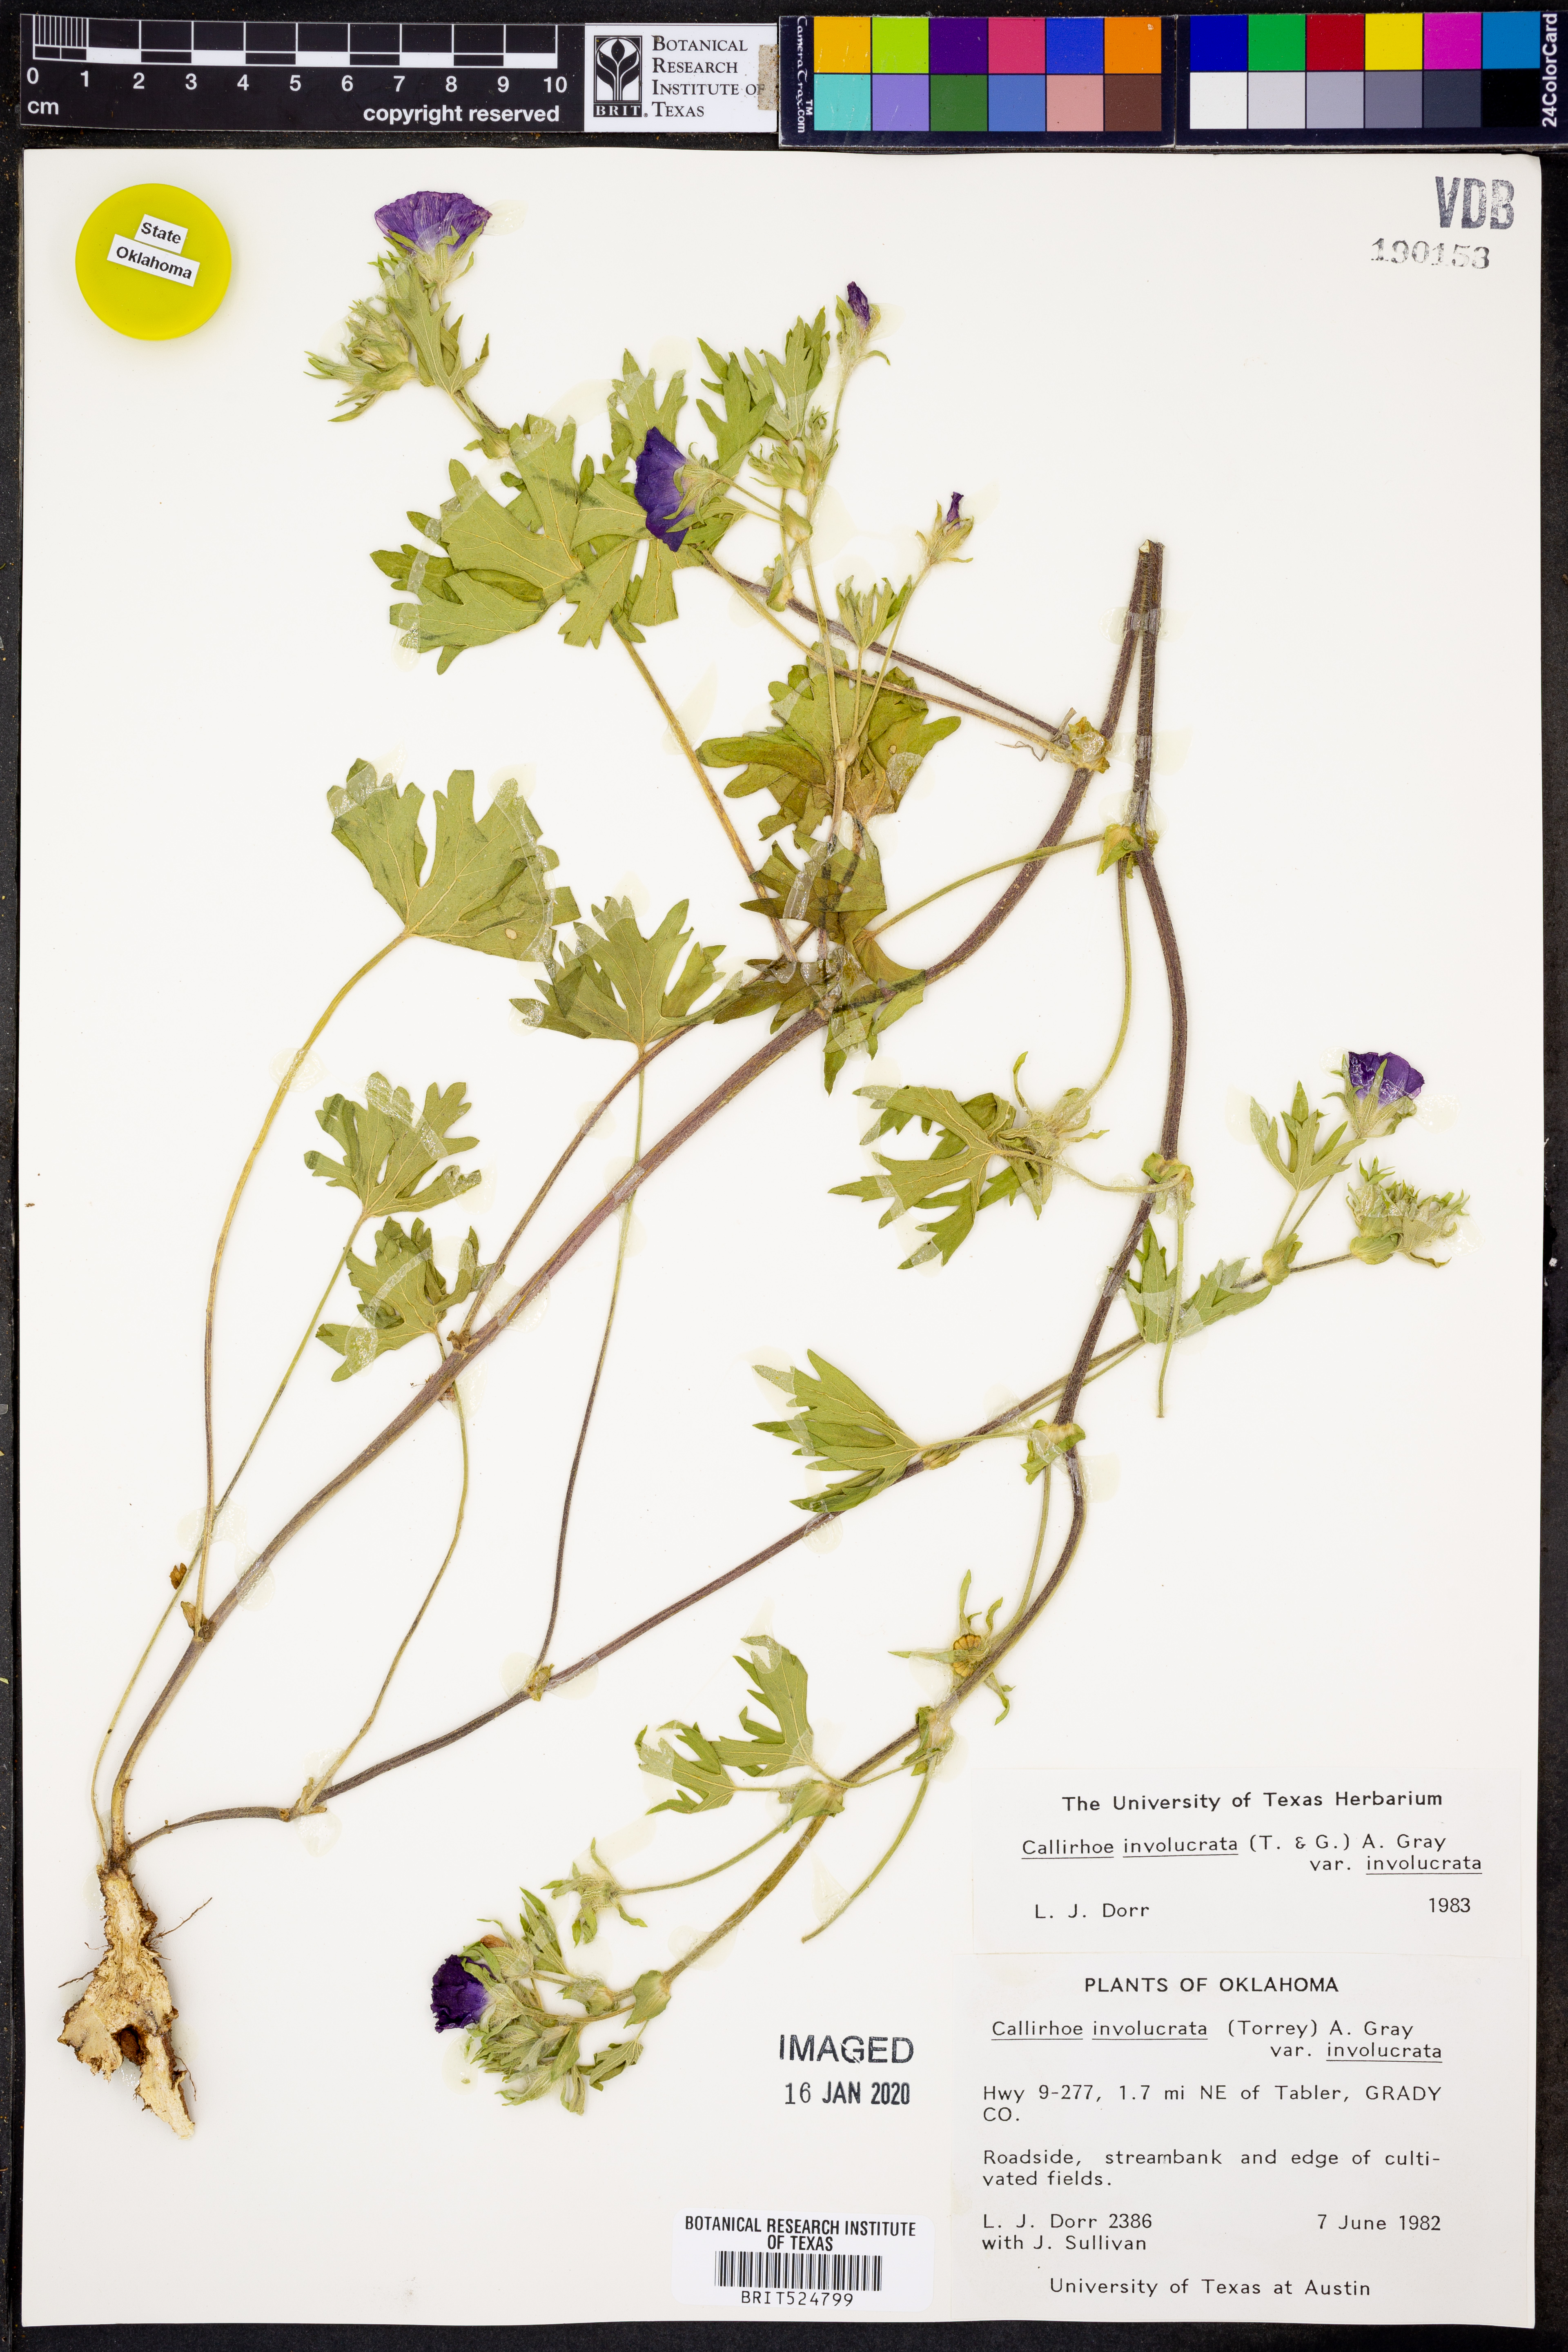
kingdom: Plantae
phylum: Tracheophyta
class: Magnoliopsida
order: Malvales
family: Malvaceae
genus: Callirhoe
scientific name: Callirhoe involucrata
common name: Purple poppy-mallow
